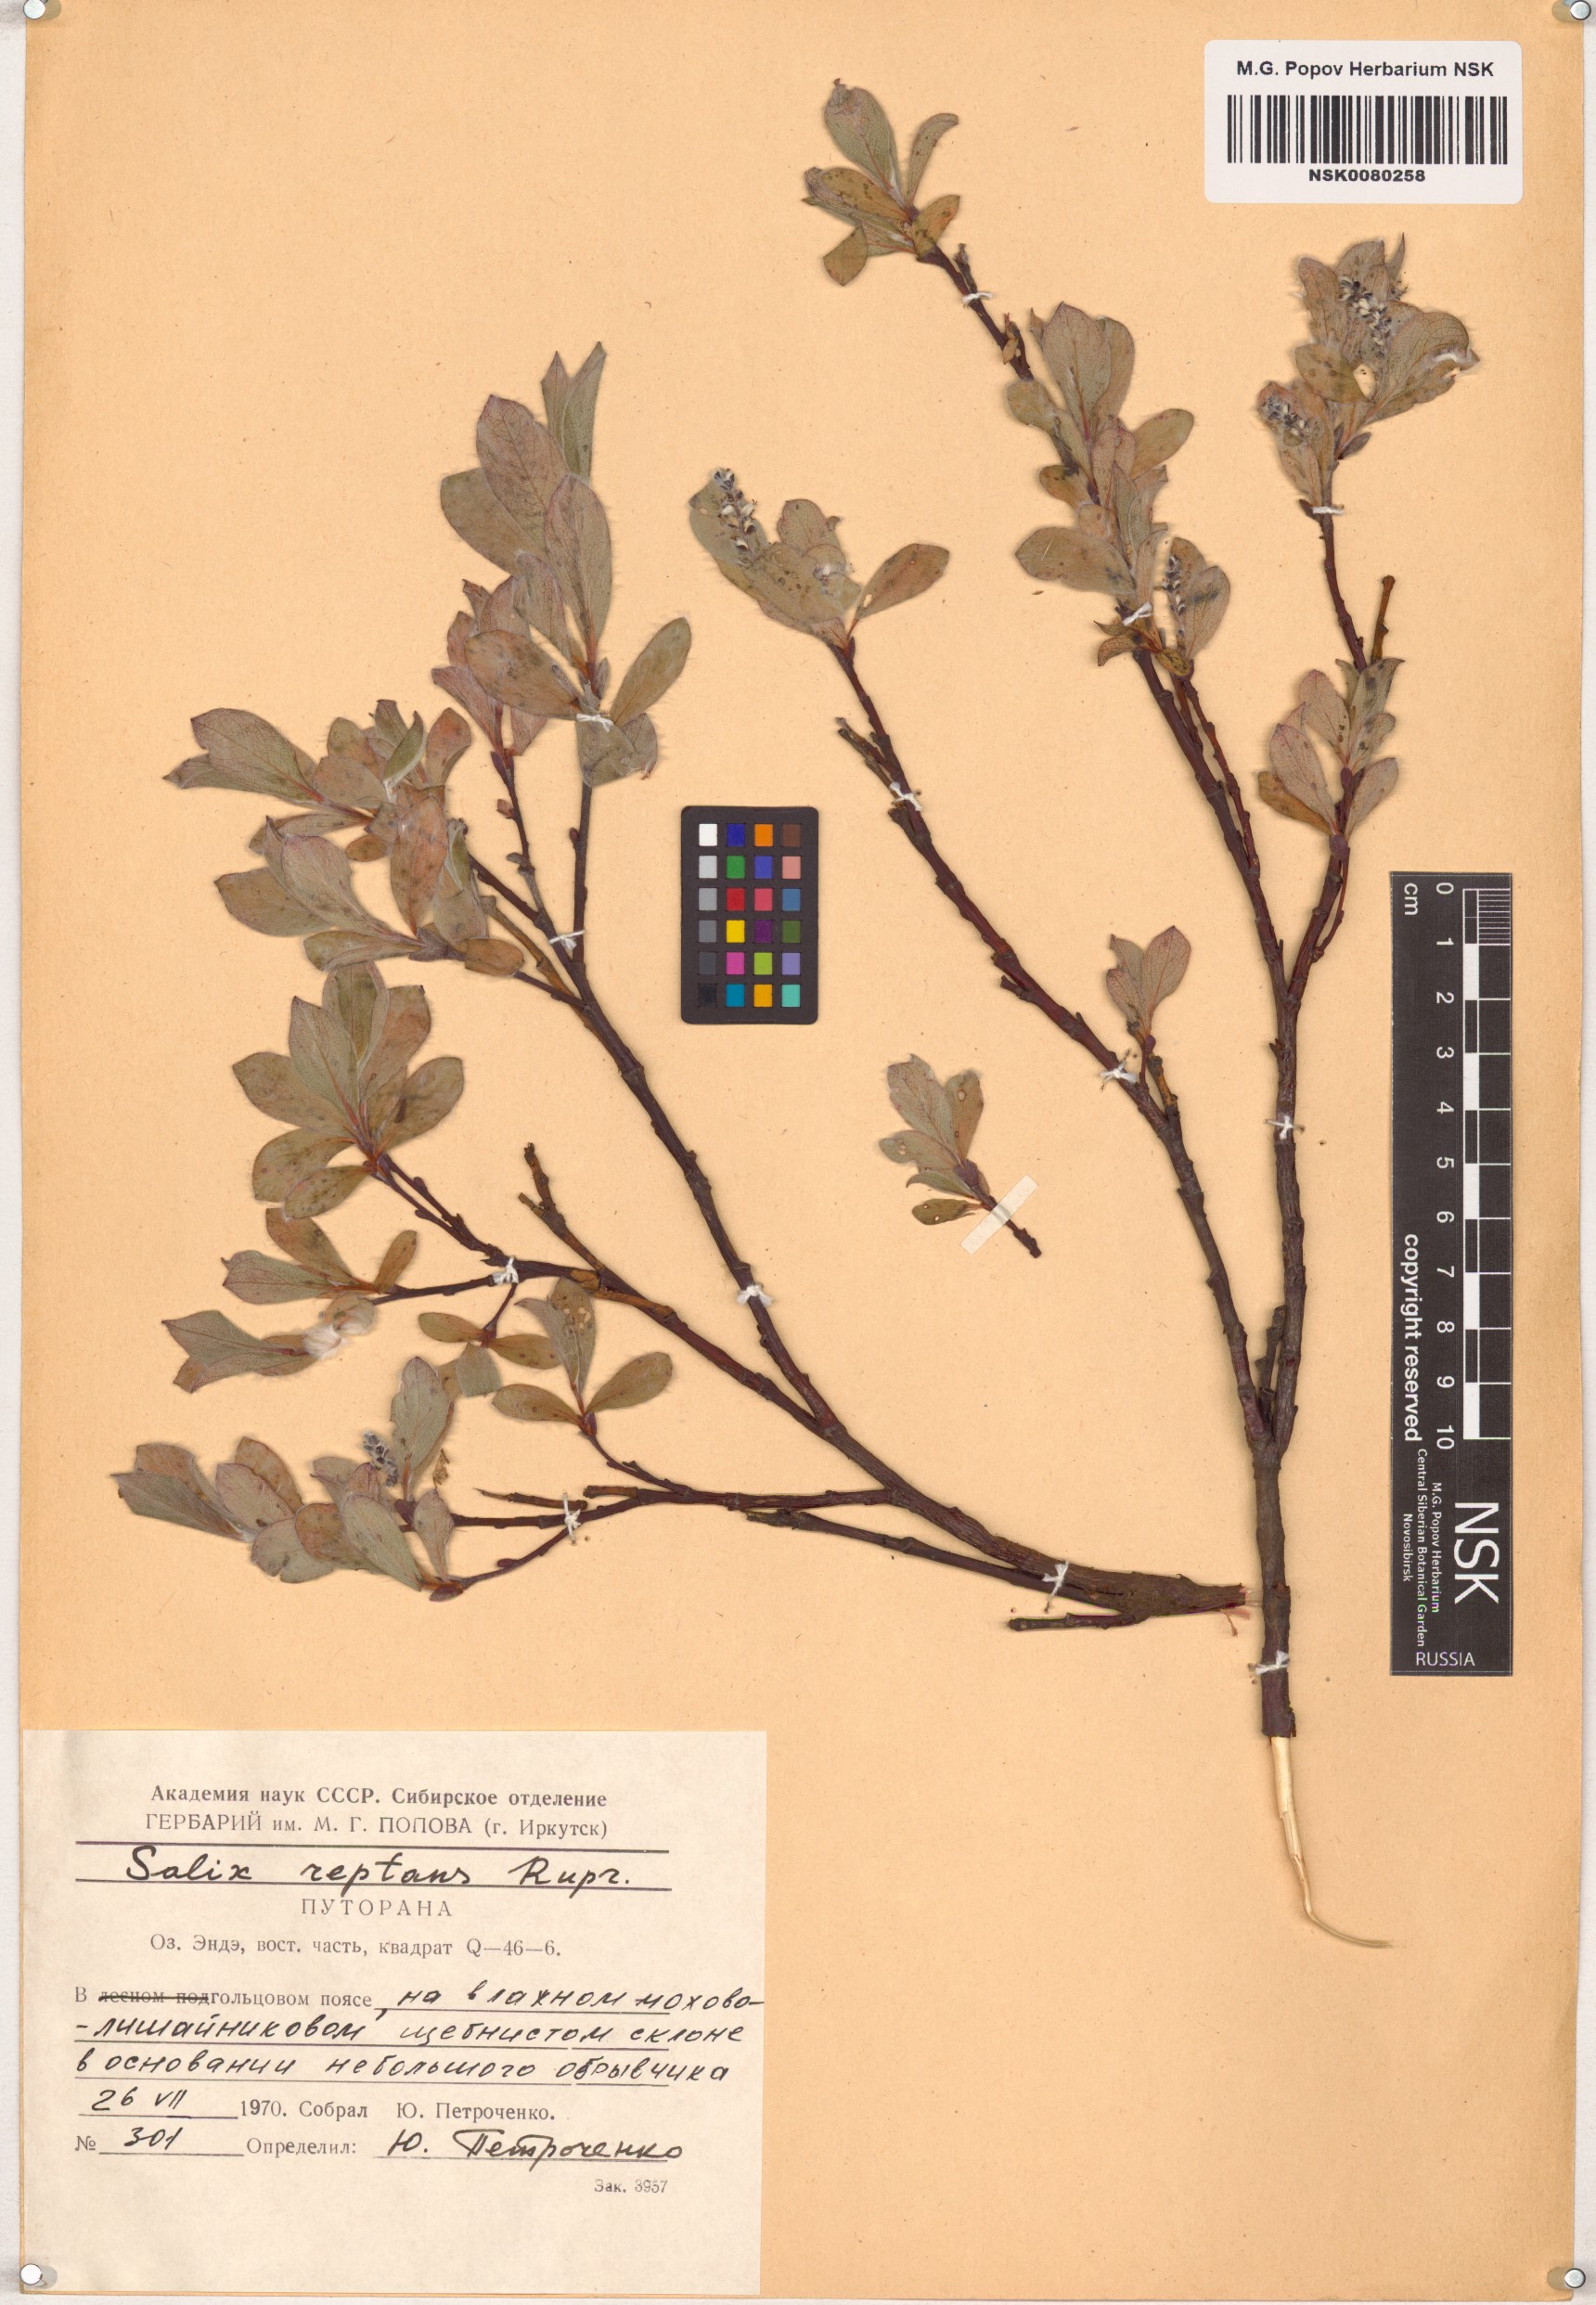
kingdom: Plantae
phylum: Tracheophyta
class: Magnoliopsida
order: Malpighiales
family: Salicaceae
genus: Salix
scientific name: Salix reptans
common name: Arctic creeping willow
